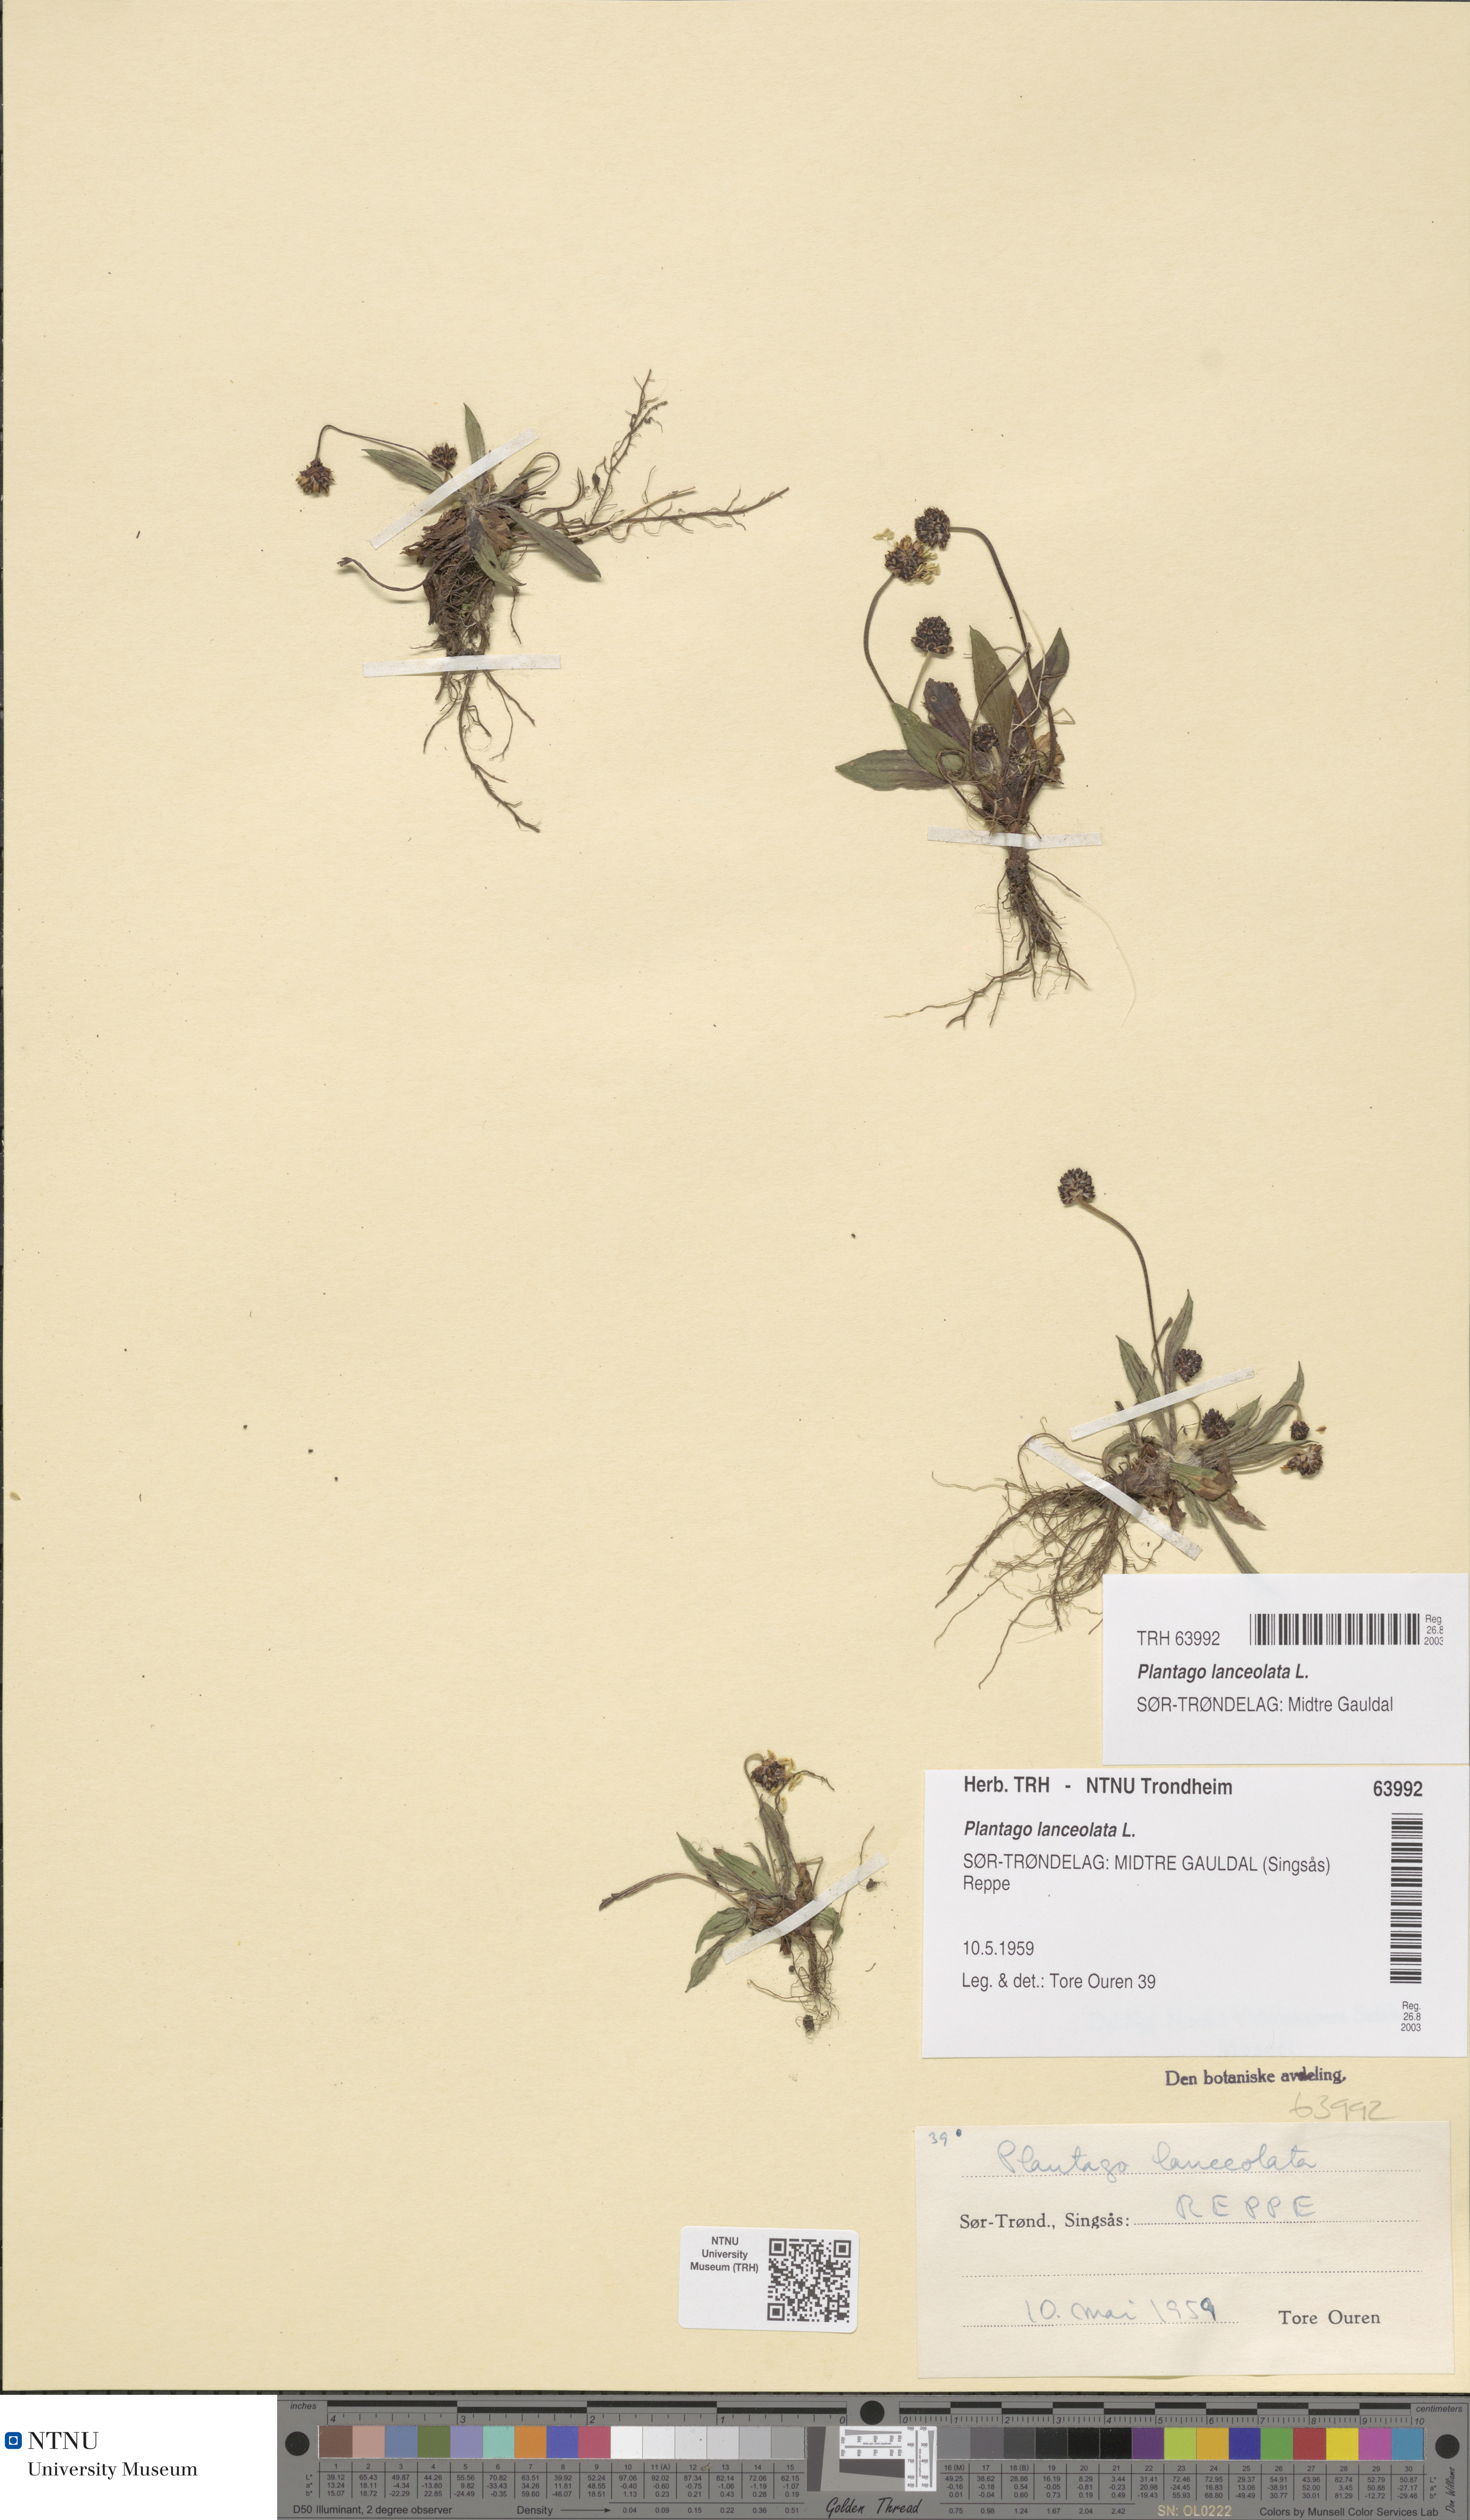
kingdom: Plantae
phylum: Tracheophyta
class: Magnoliopsida
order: Lamiales
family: Plantaginaceae
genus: Plantago
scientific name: Plantago lanceolata
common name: Ribwort plantain
